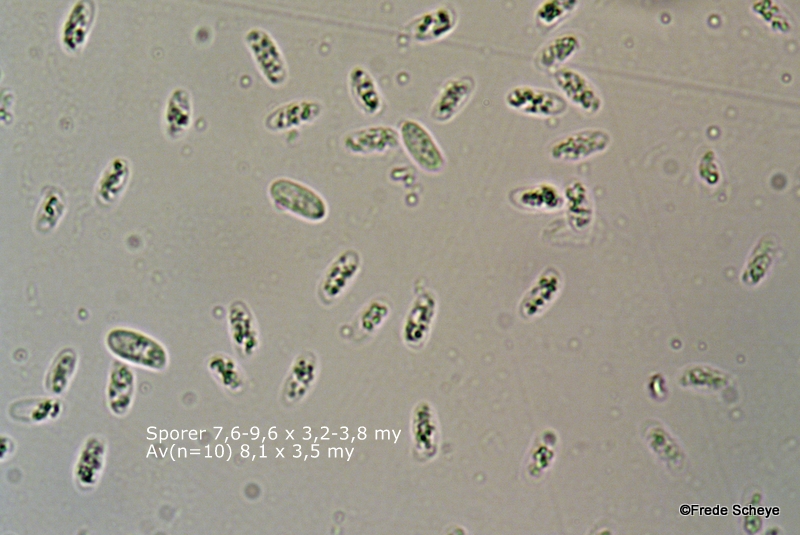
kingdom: Fungi
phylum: Basidiomycota
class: Agaricomycetes
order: Agaricales
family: Pleurotaceae
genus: Pleurotus
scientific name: Pleurotus ostreatus
